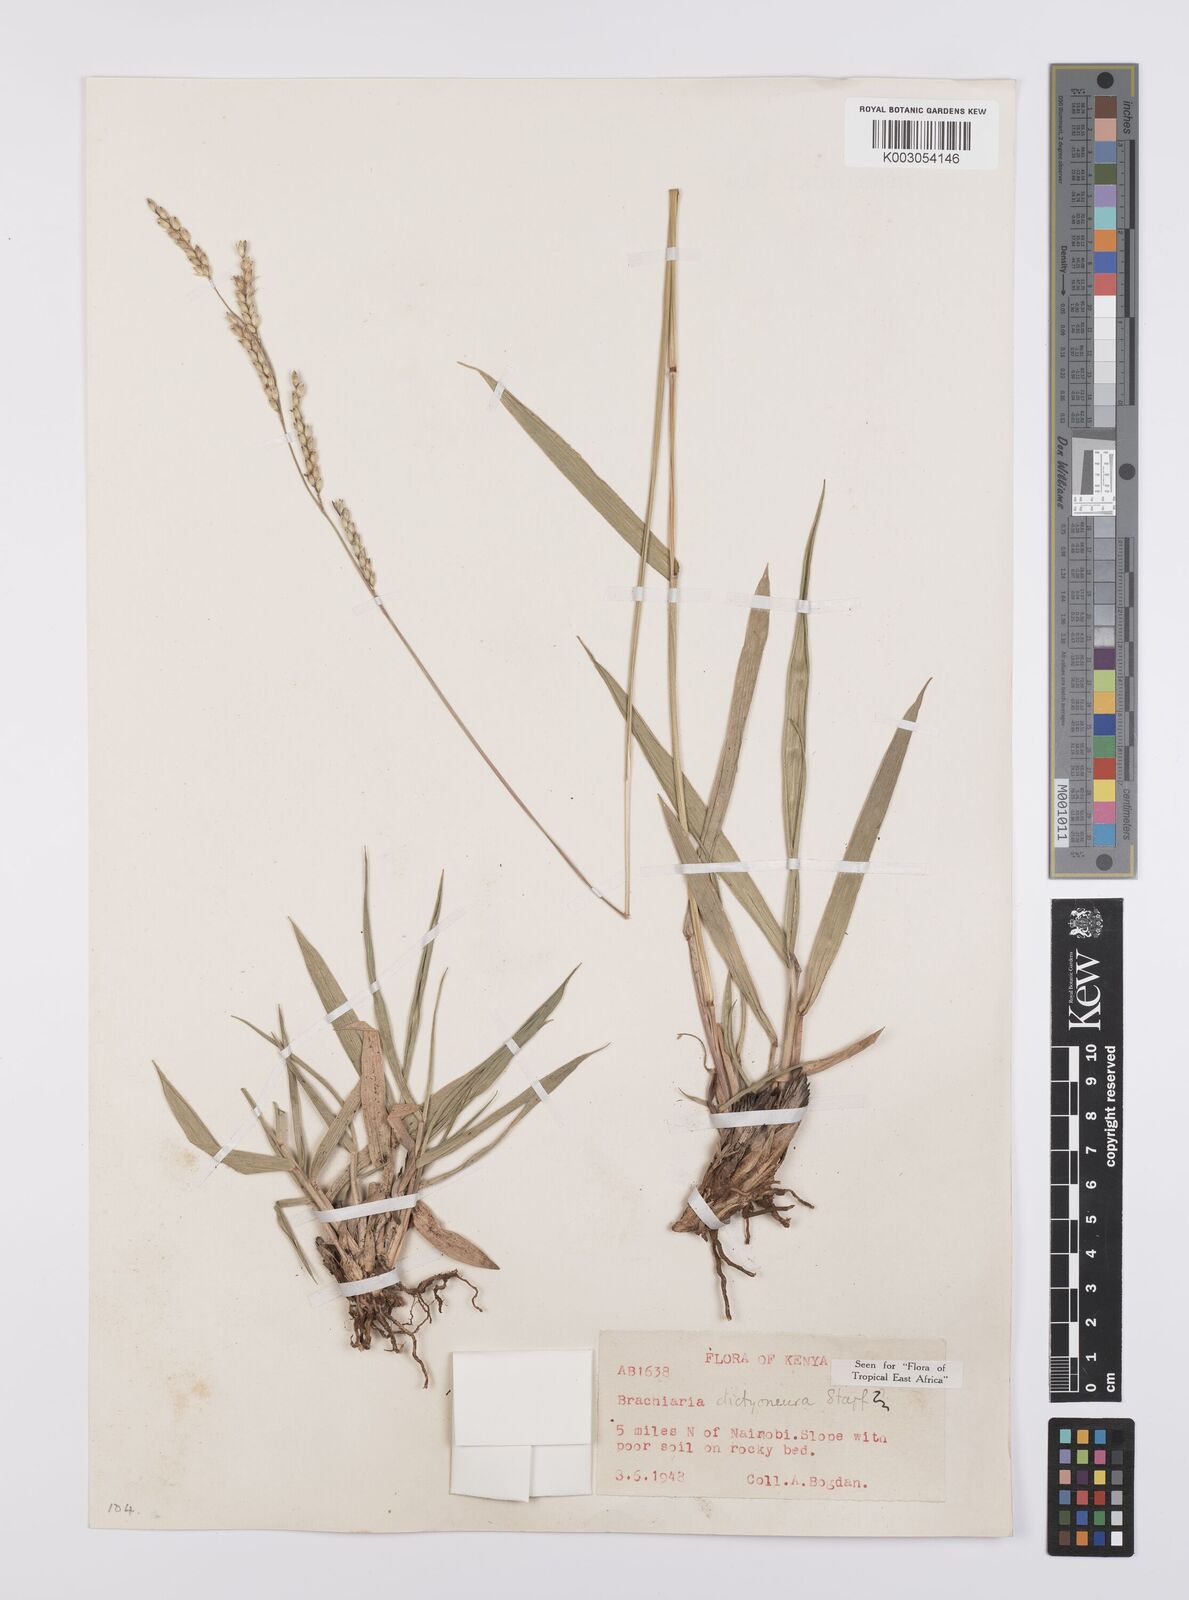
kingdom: Plantae
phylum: Tracheophyta
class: Liliopsida
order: Poales
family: Poaceae
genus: Urochloa
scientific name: Urochloa dictyoneura
